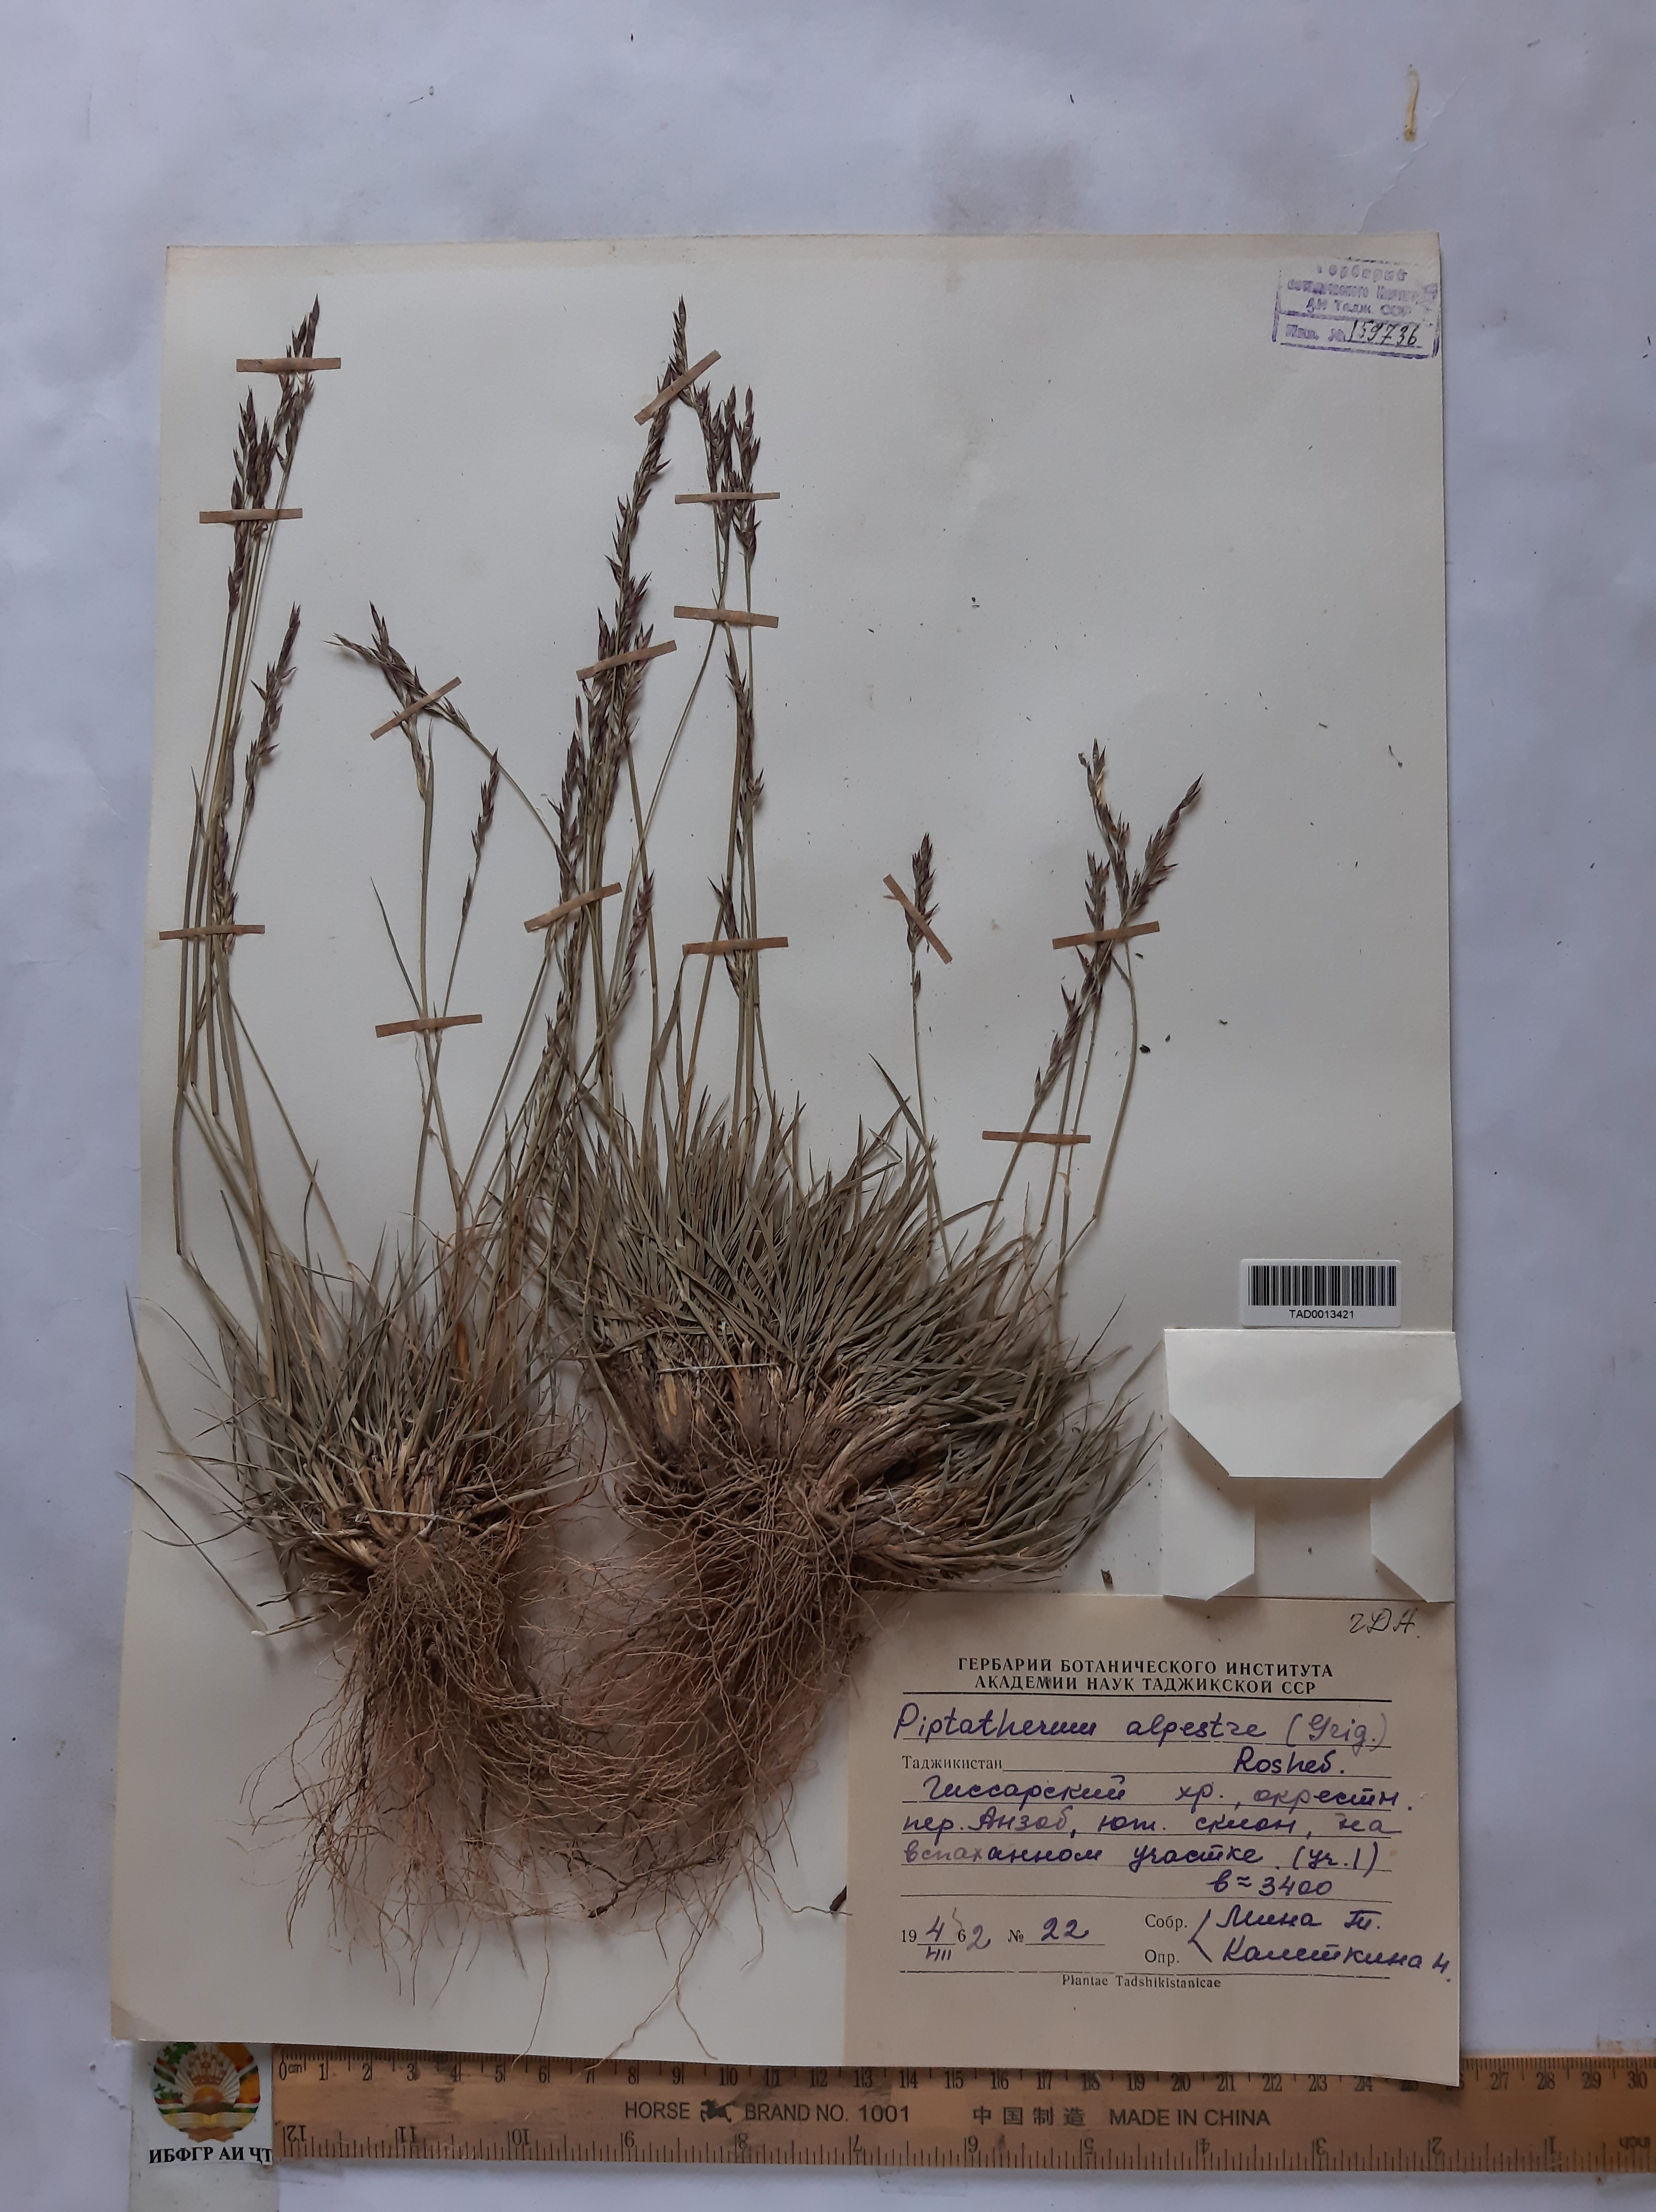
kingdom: Plantae
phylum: Tracheophyta
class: Liliopsida
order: Poales
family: Poaceae
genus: Piptatherum
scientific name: Piptatherum alpestre
